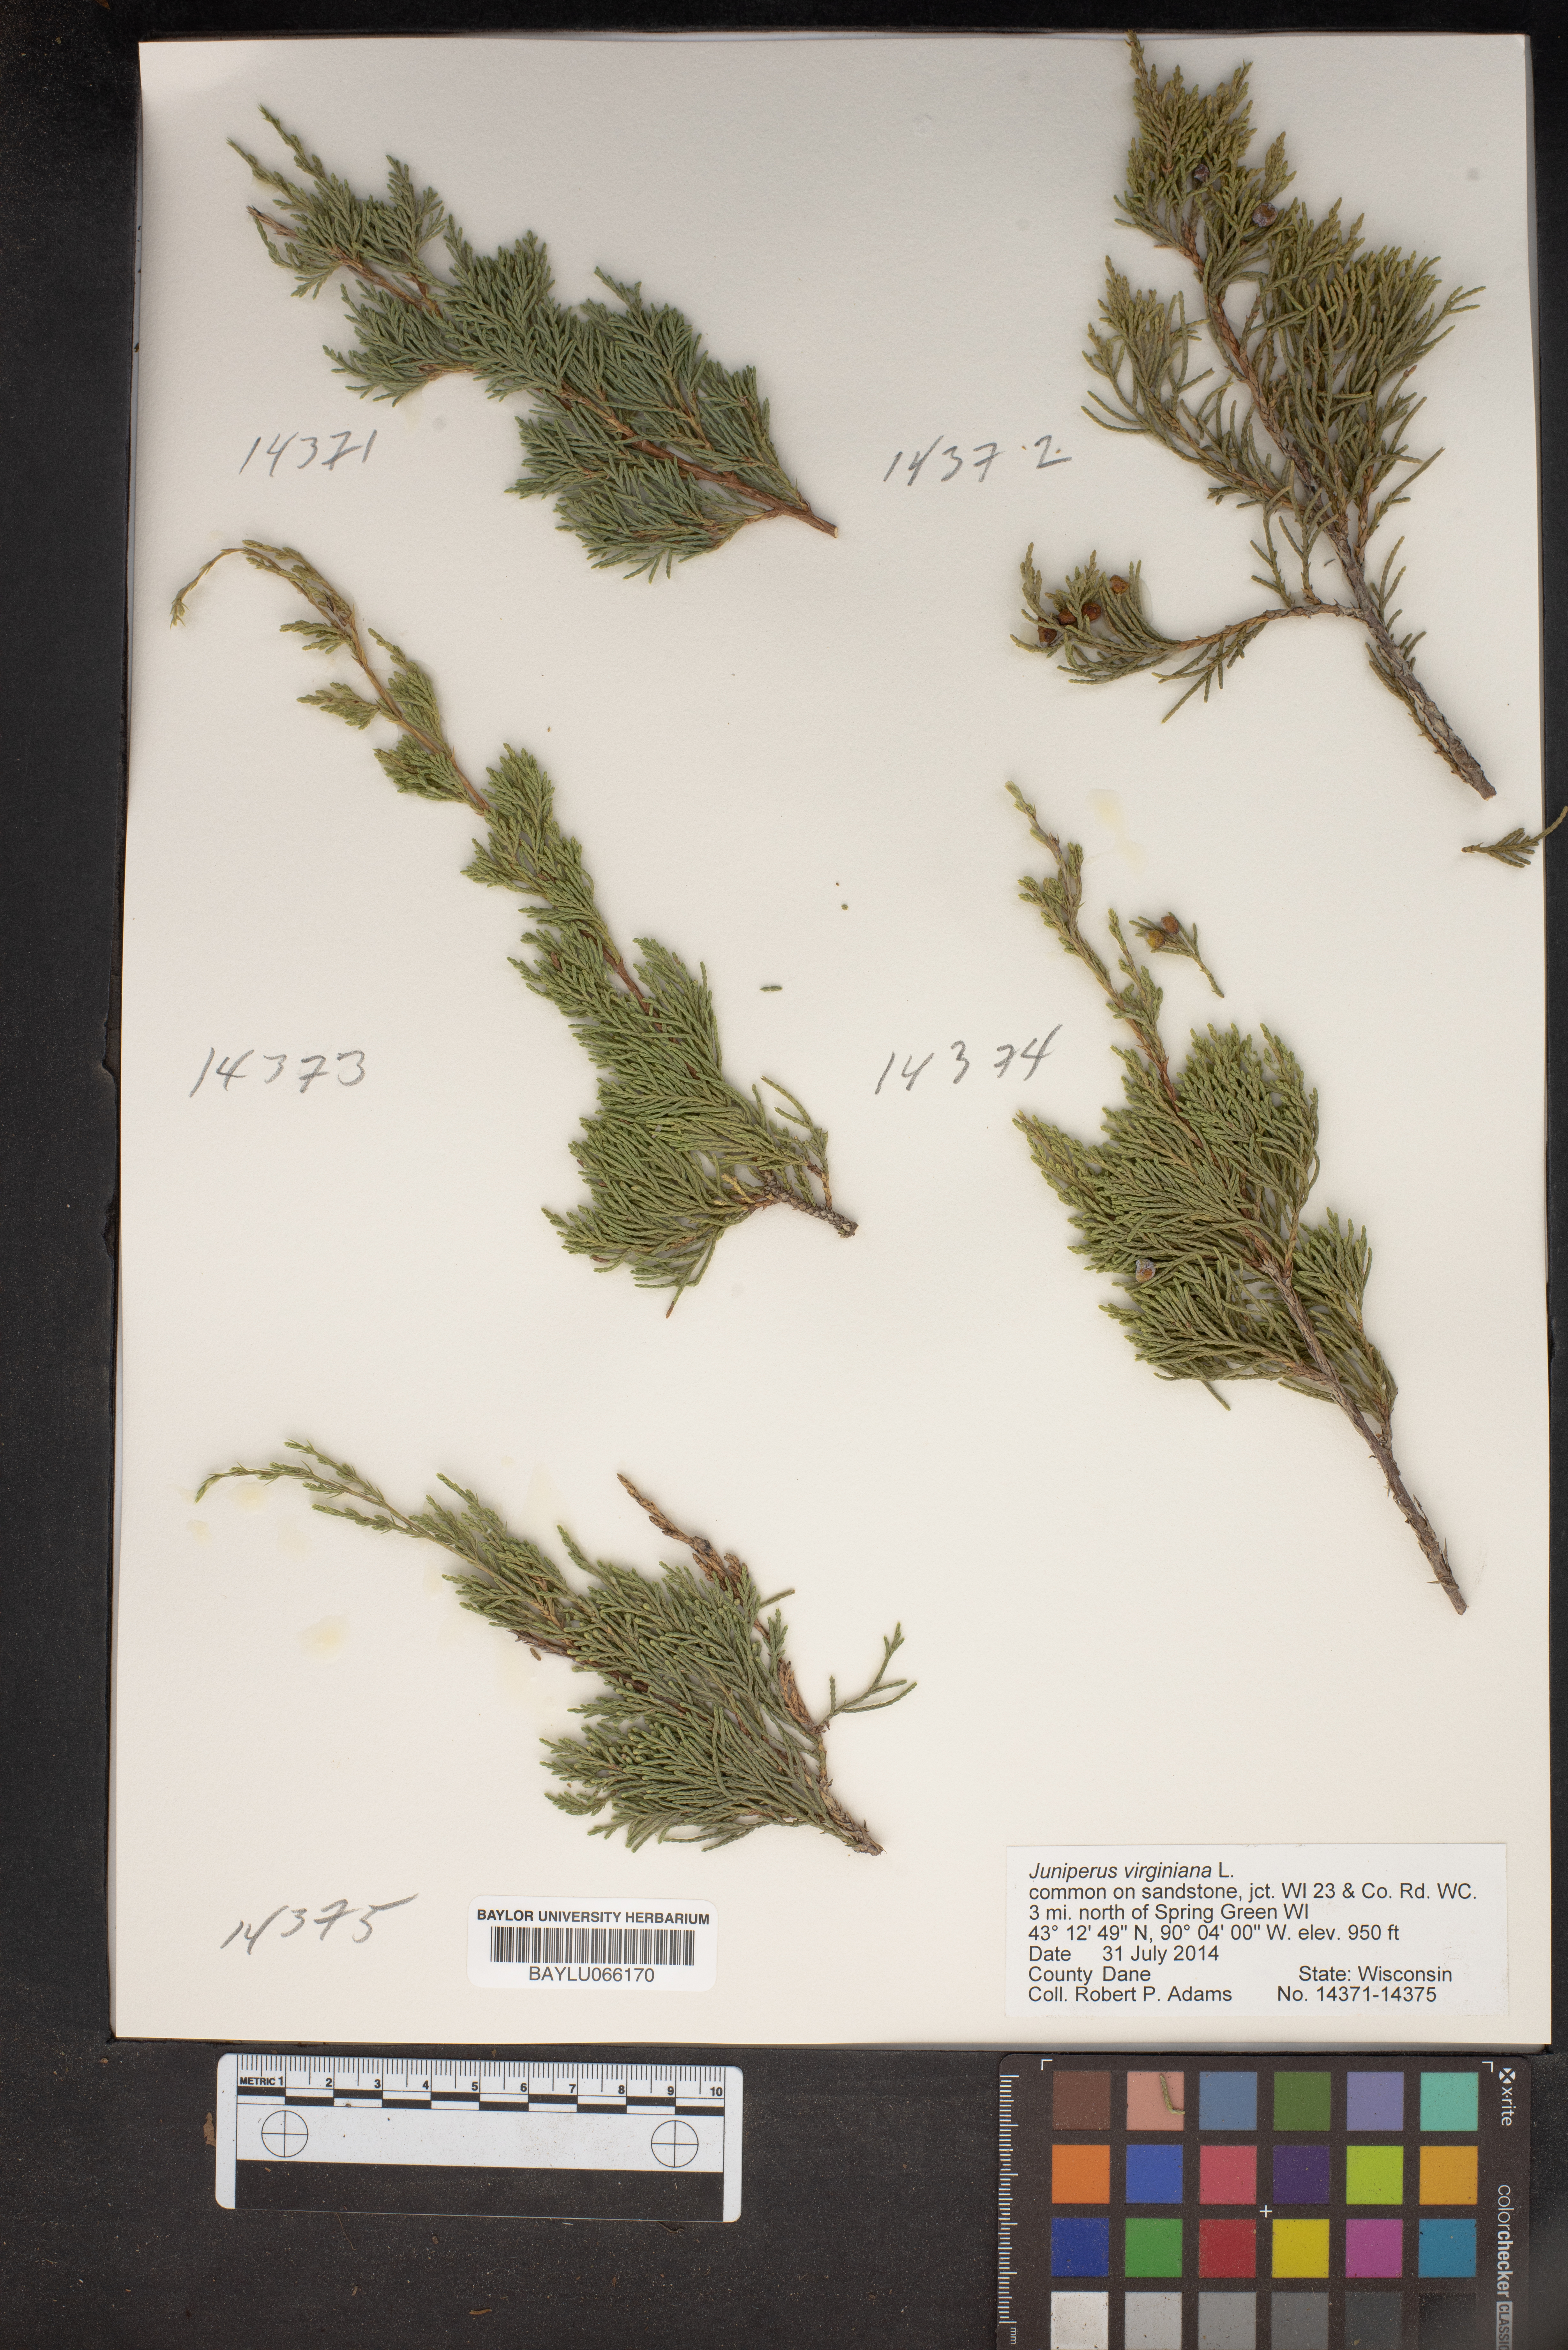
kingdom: Plantae
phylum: Tracheophyta
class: Pinopsida
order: Pinales
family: Cupressaceae
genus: Juniperus
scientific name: Juniperus virginiana
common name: Red juniper
